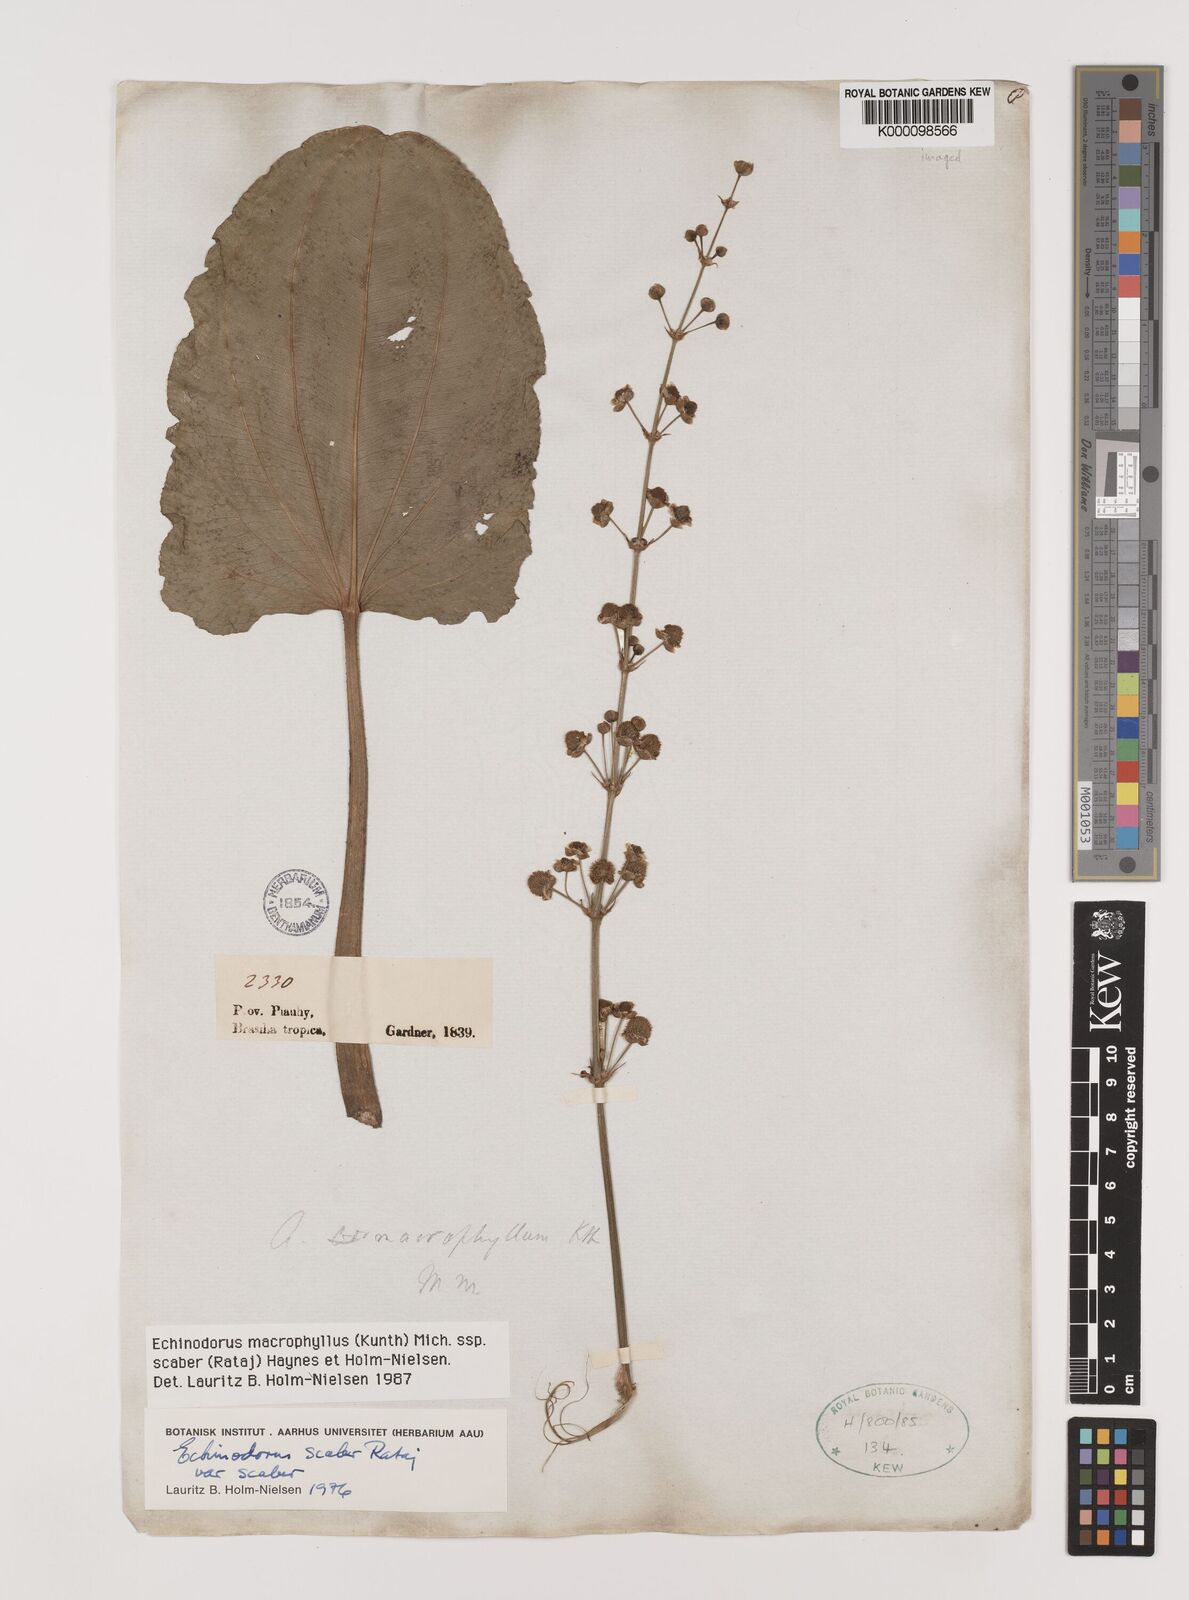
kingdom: Plantae
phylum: Tracheophyta
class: Liliopsida
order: Alismatales
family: Alismataceae
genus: Aquarius
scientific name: Aquarius scaber
